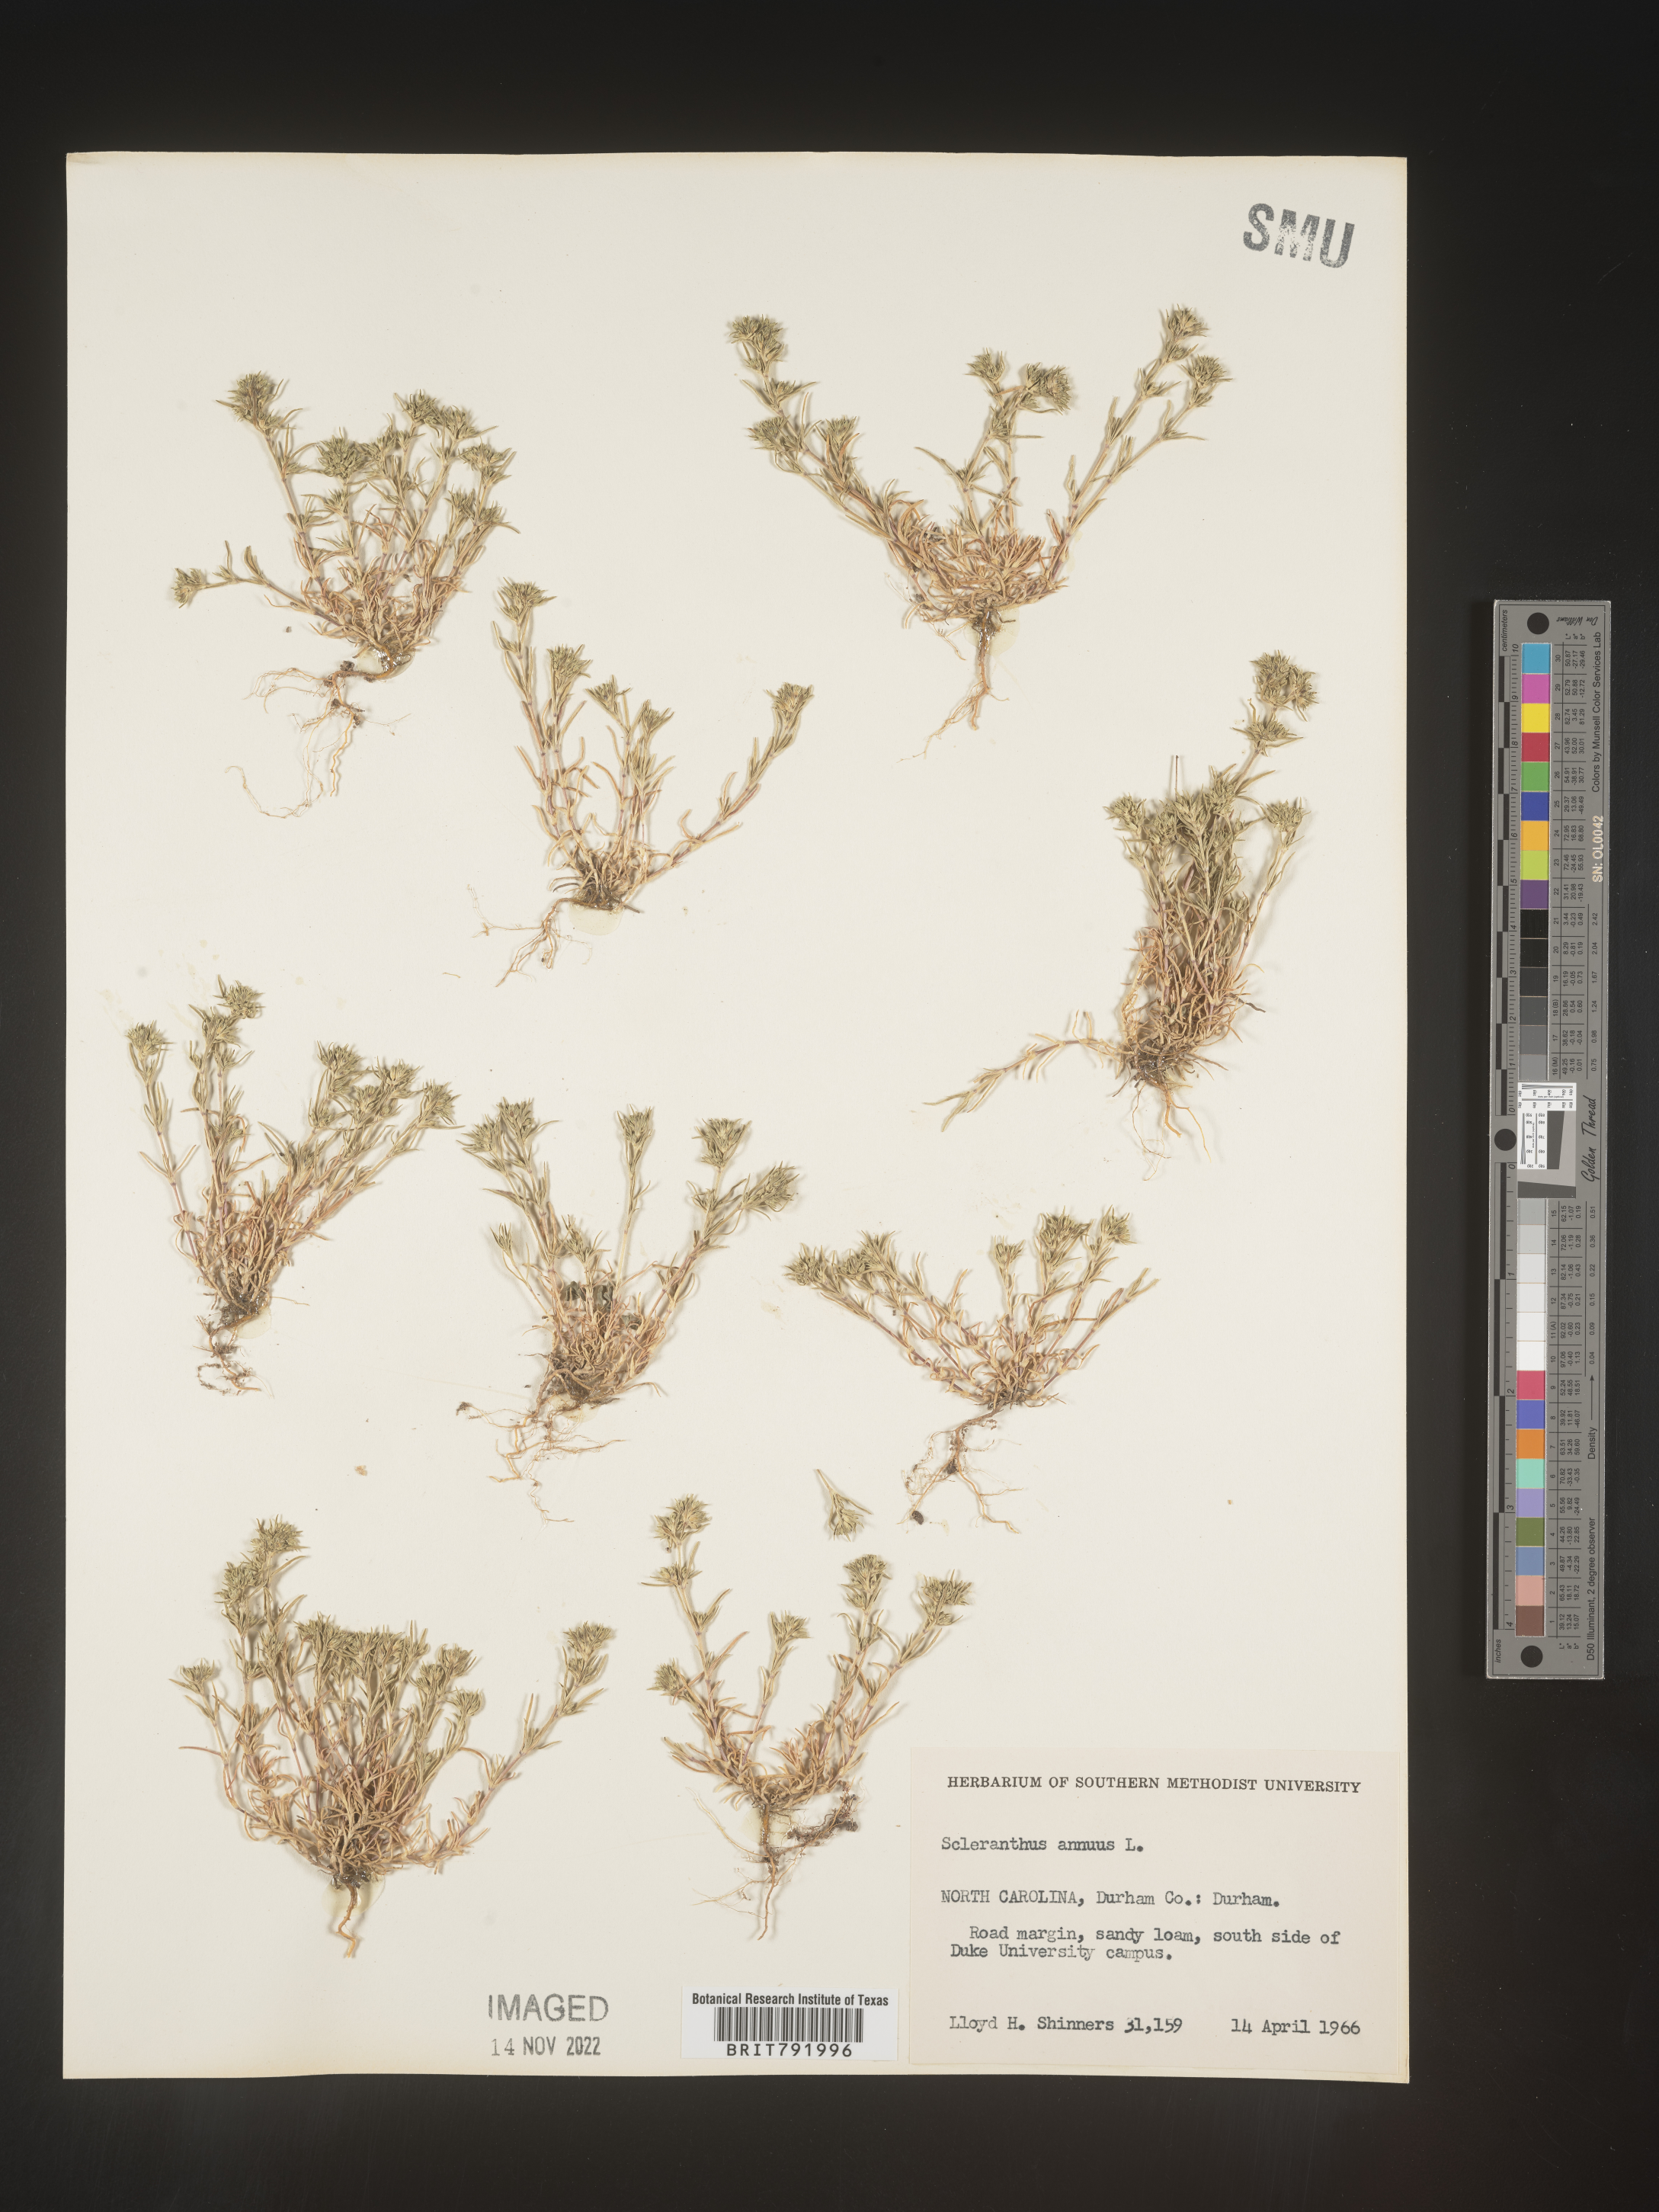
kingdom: Plantae
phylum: Tracheophyta
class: Magnoliopsida
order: Caryophyllales
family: Caryophyllaceae
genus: Scleranthus
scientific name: Scleranthus
